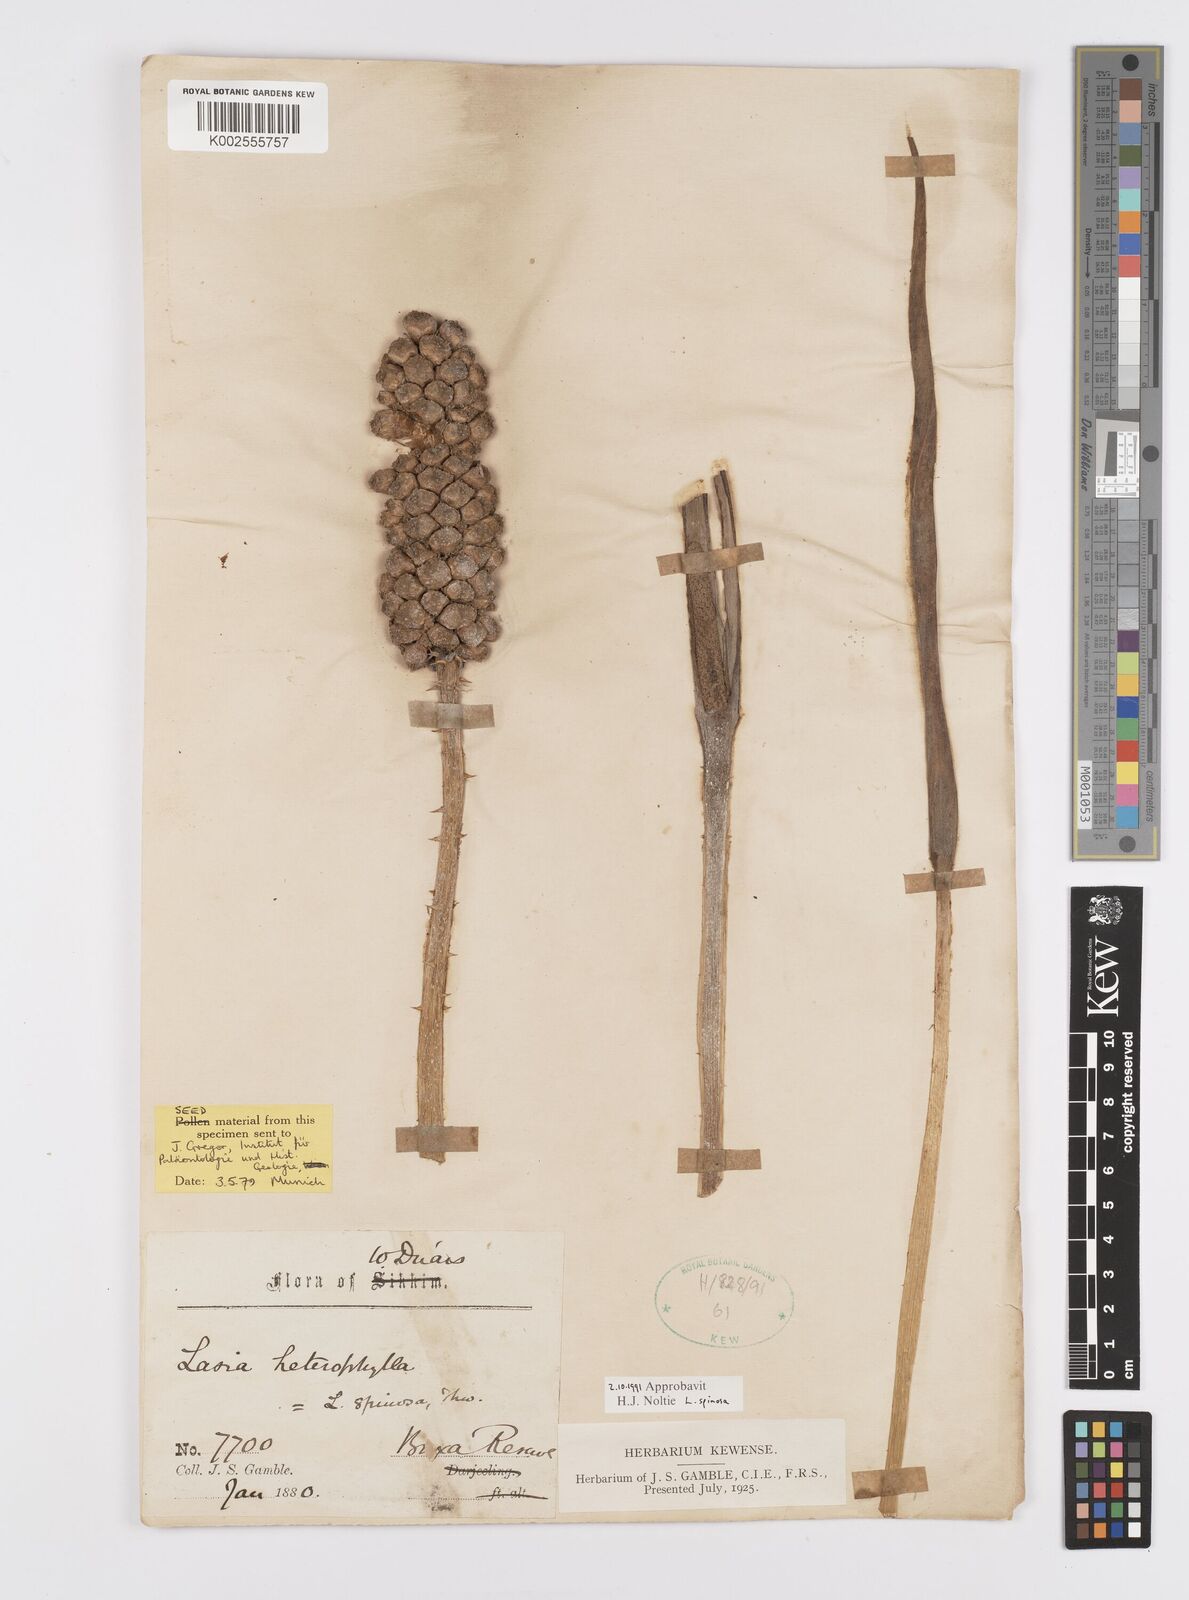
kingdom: Plantae
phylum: Tracheophyta
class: Liliopsida
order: Alismatales
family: Araceae
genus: Lasia
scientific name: Lasia spinosa
